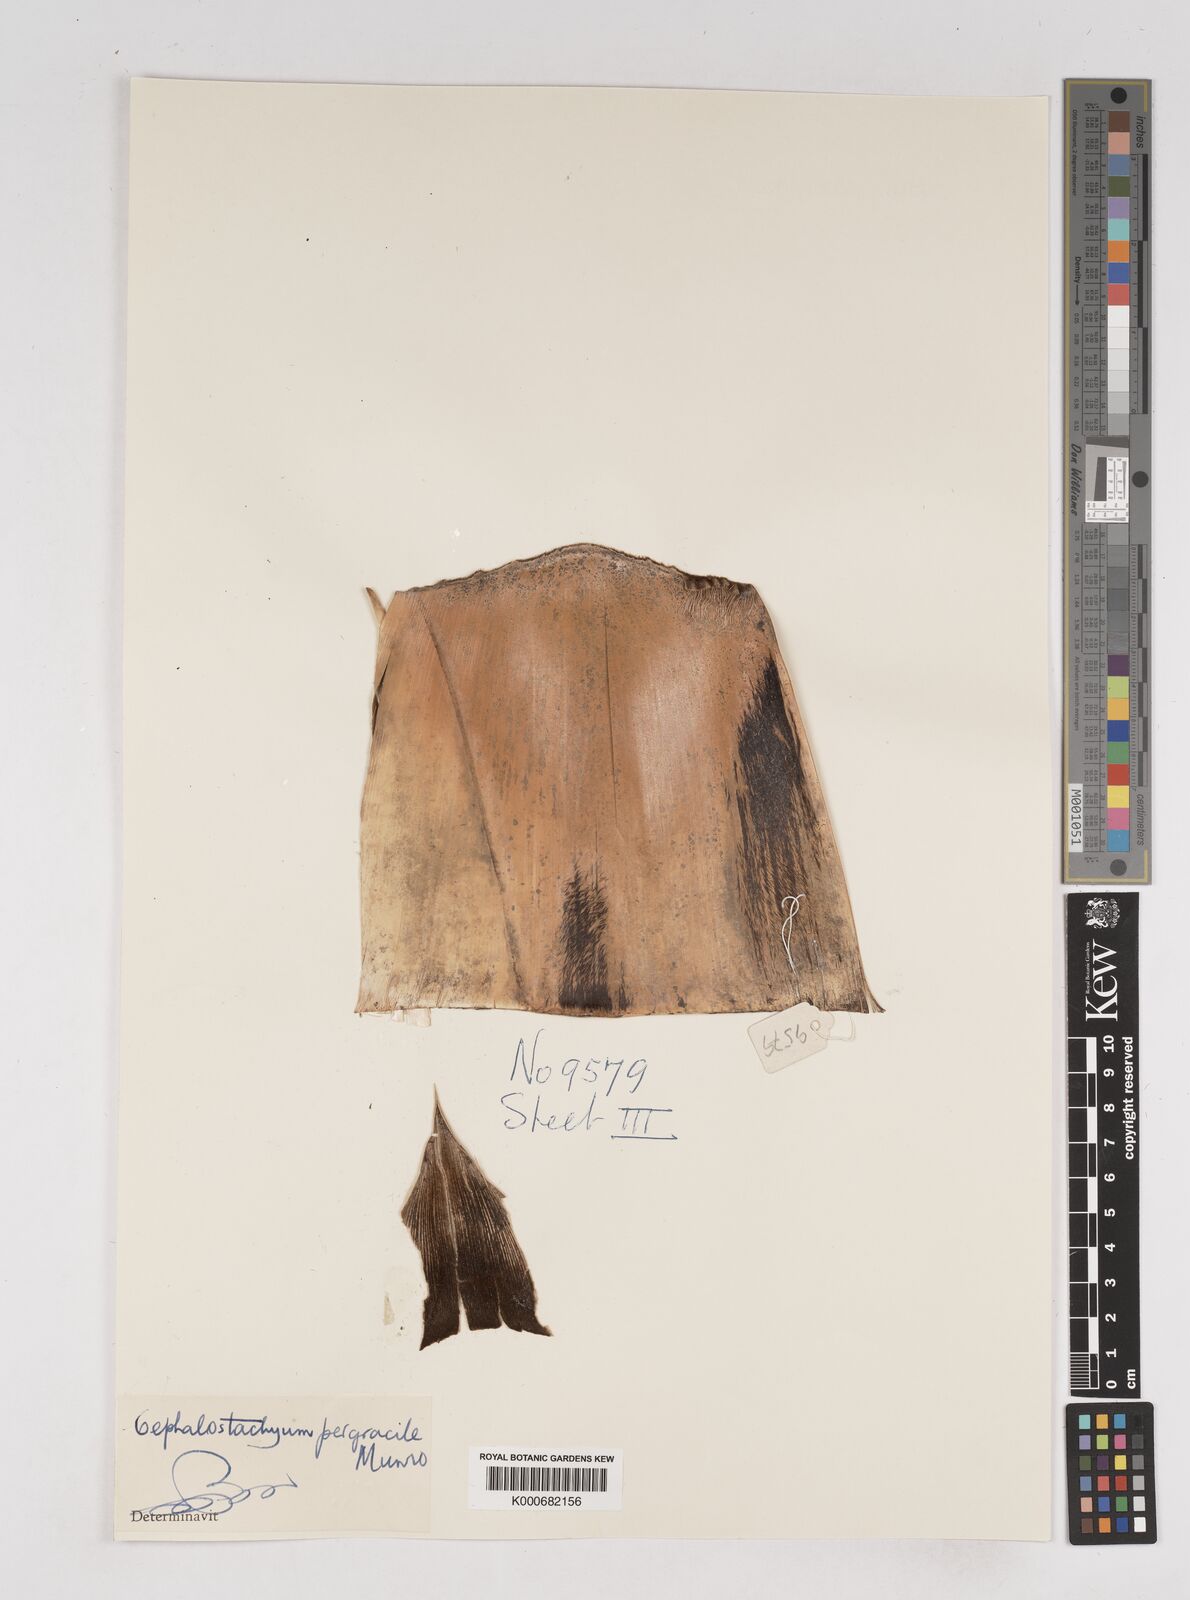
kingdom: Plantae
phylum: Tracheophyta
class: Liliopsida
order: Poales
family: Poaceae
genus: Schizostachyum
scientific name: Schizostachyum pergracile
